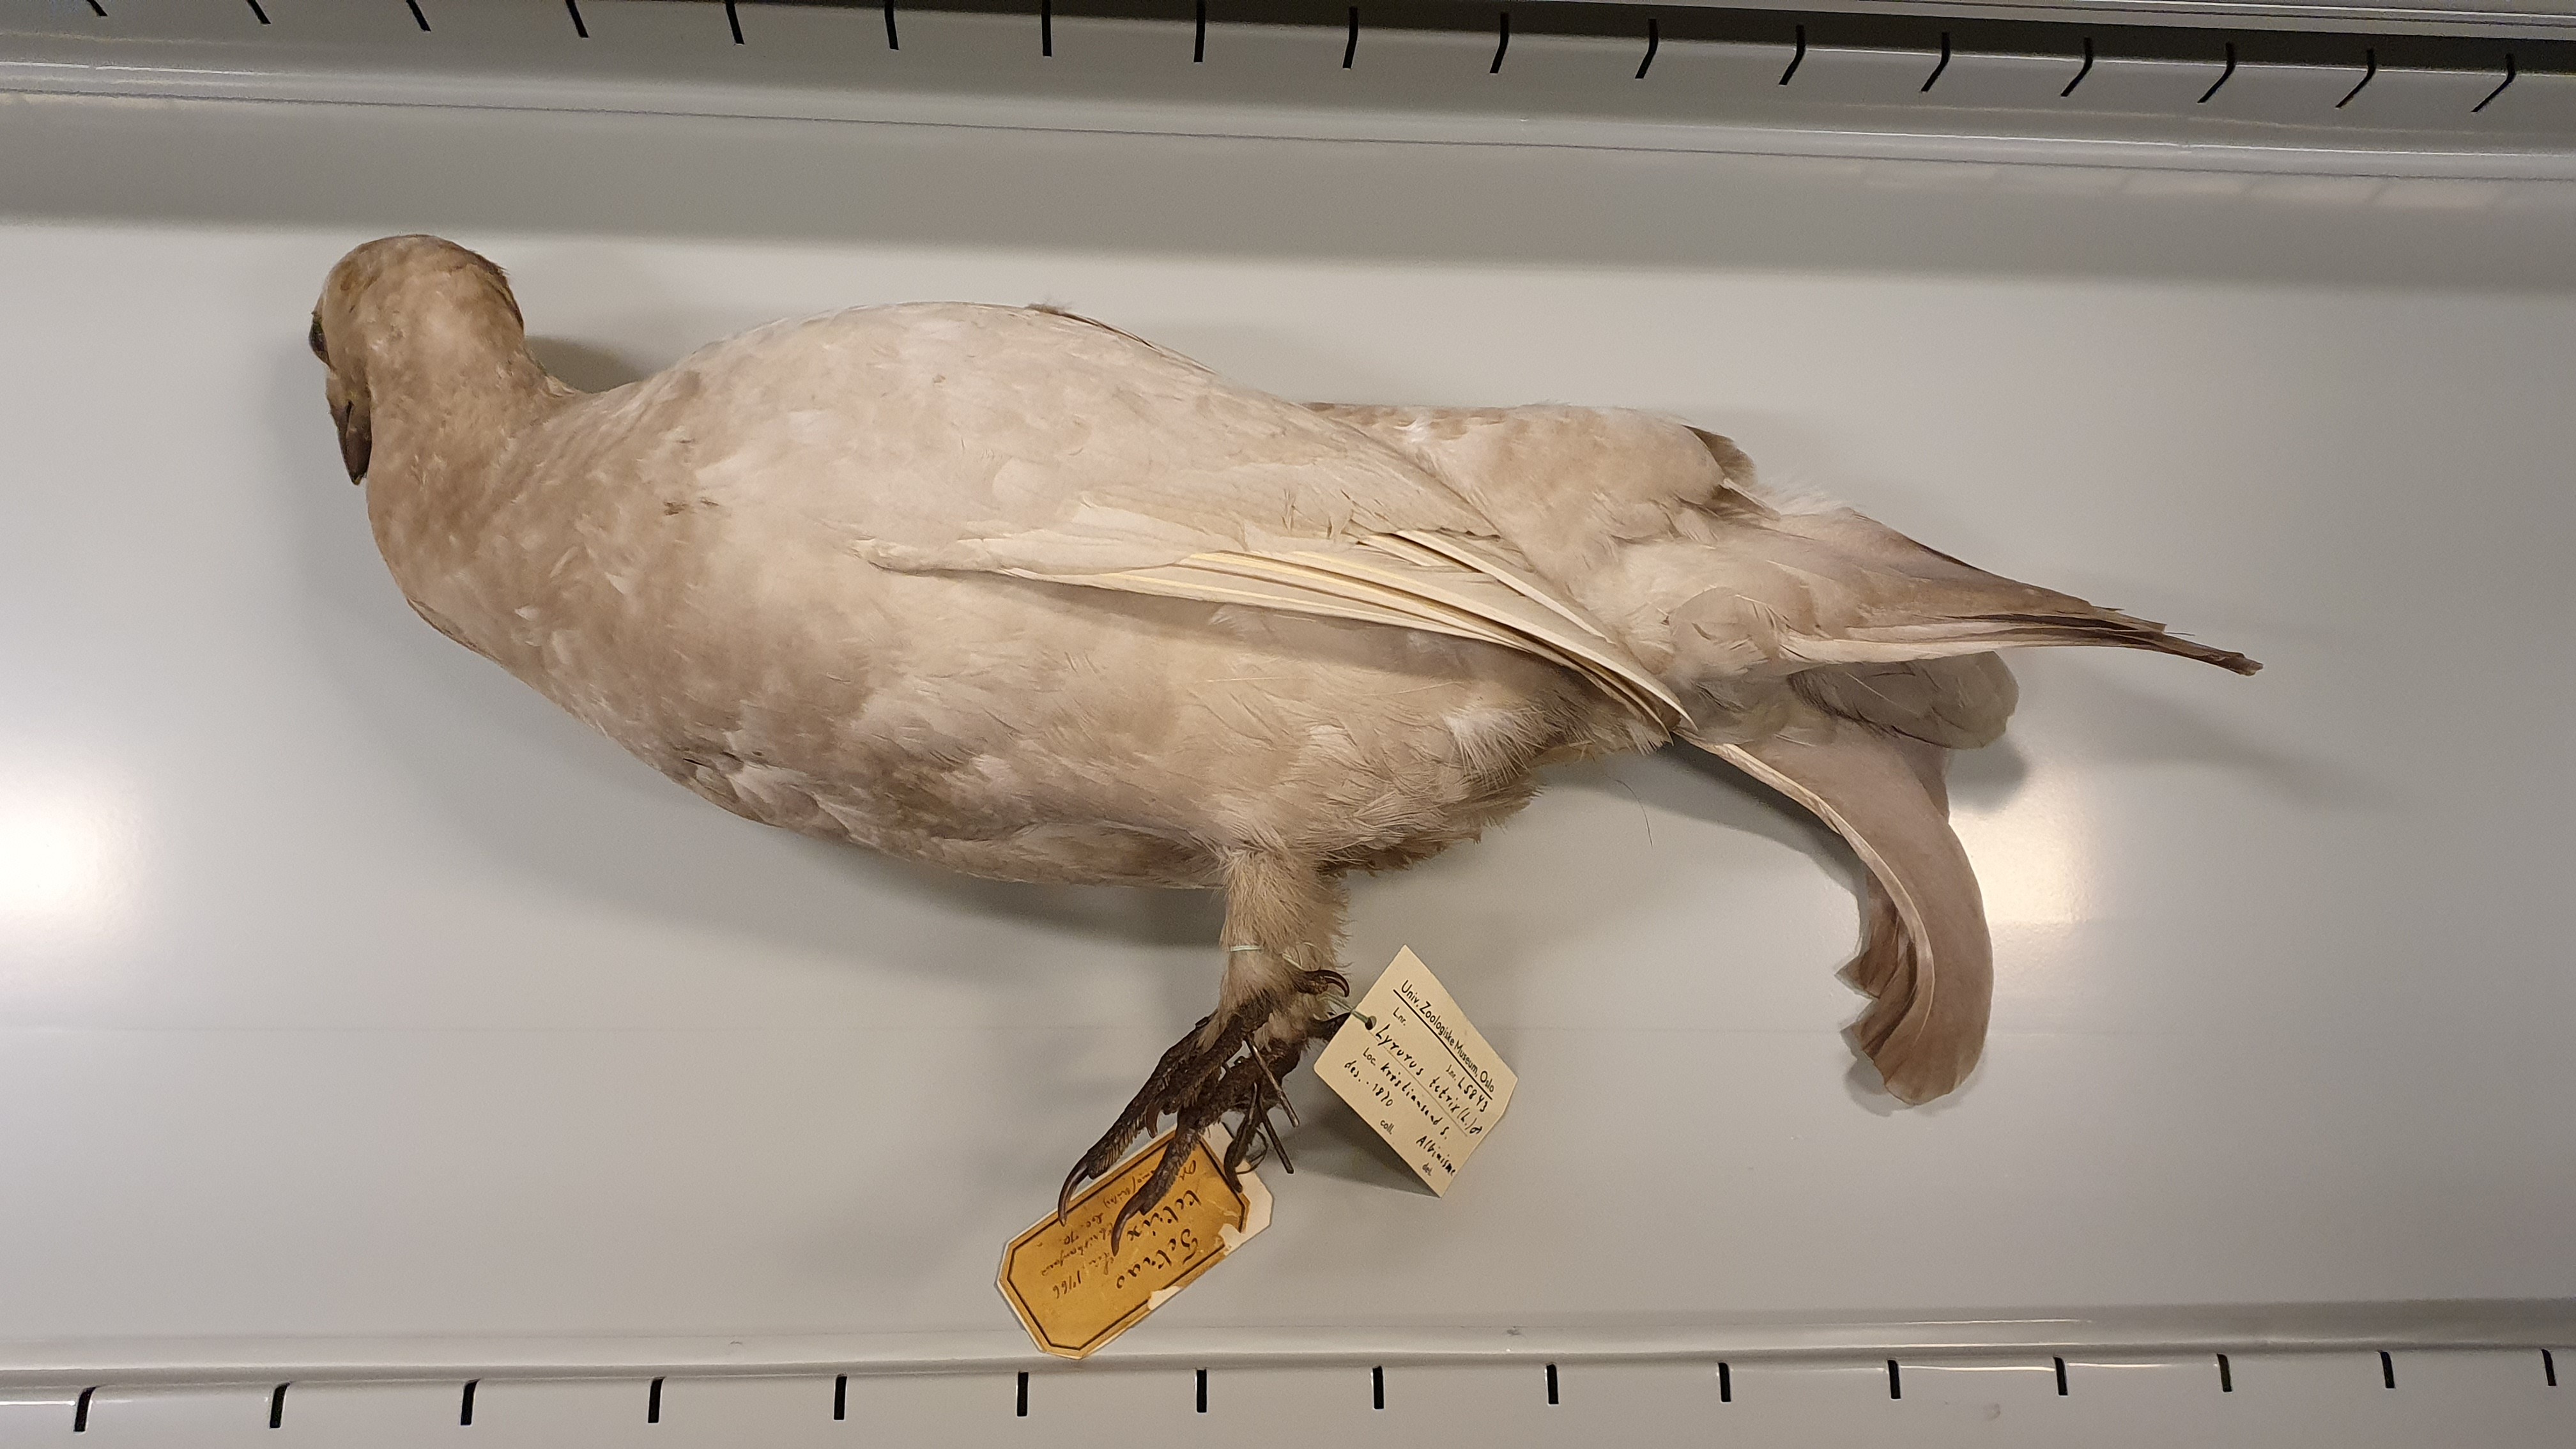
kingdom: Animalia
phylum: Chordata
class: Aves
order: Galliformes
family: Phasianidae
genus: Lyrurus
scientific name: Lyrurus tetrix
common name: Black grouse
